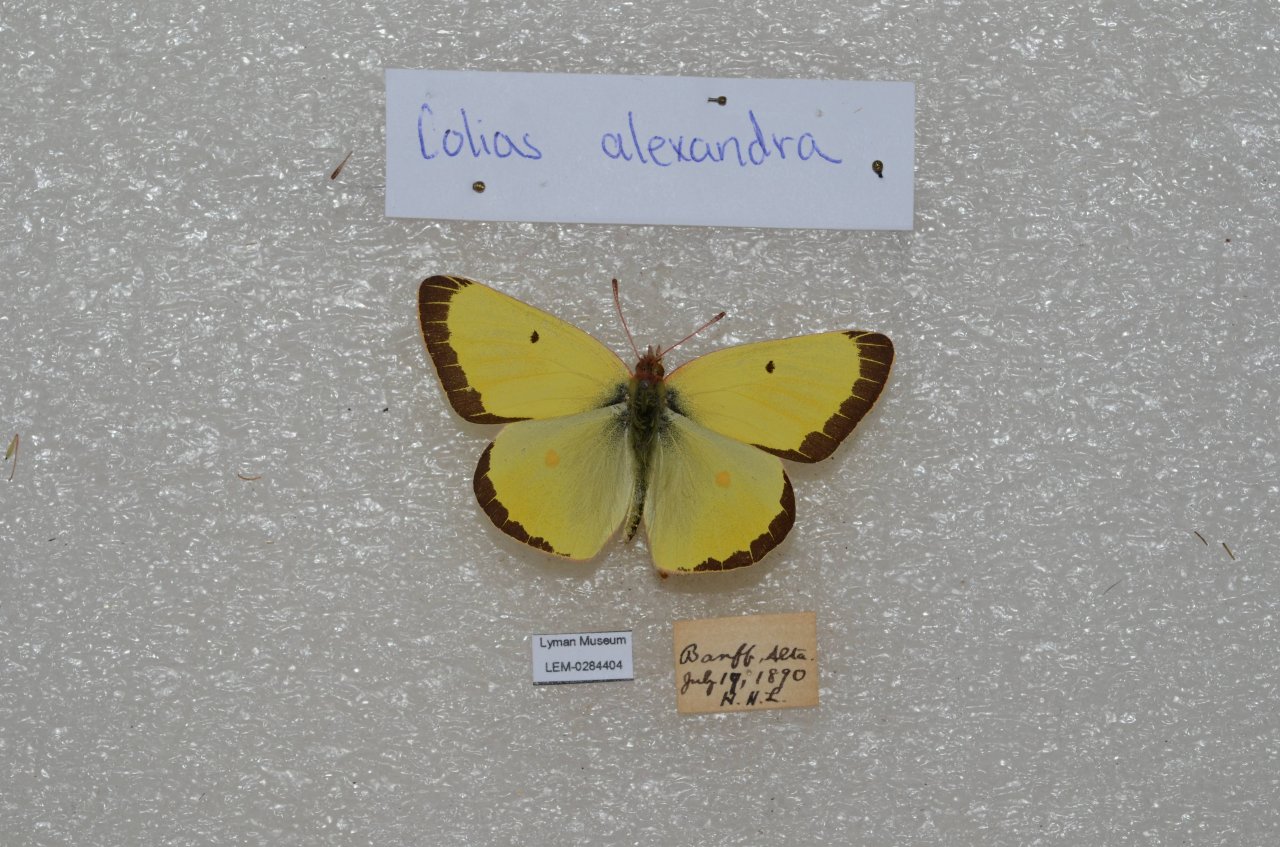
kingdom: Animalia
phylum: Arthropoda
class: Insecta
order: Lepidoptera
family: Pieridae
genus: Colias
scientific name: Colias alexandra
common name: Queen Alexandra's Sulphur
